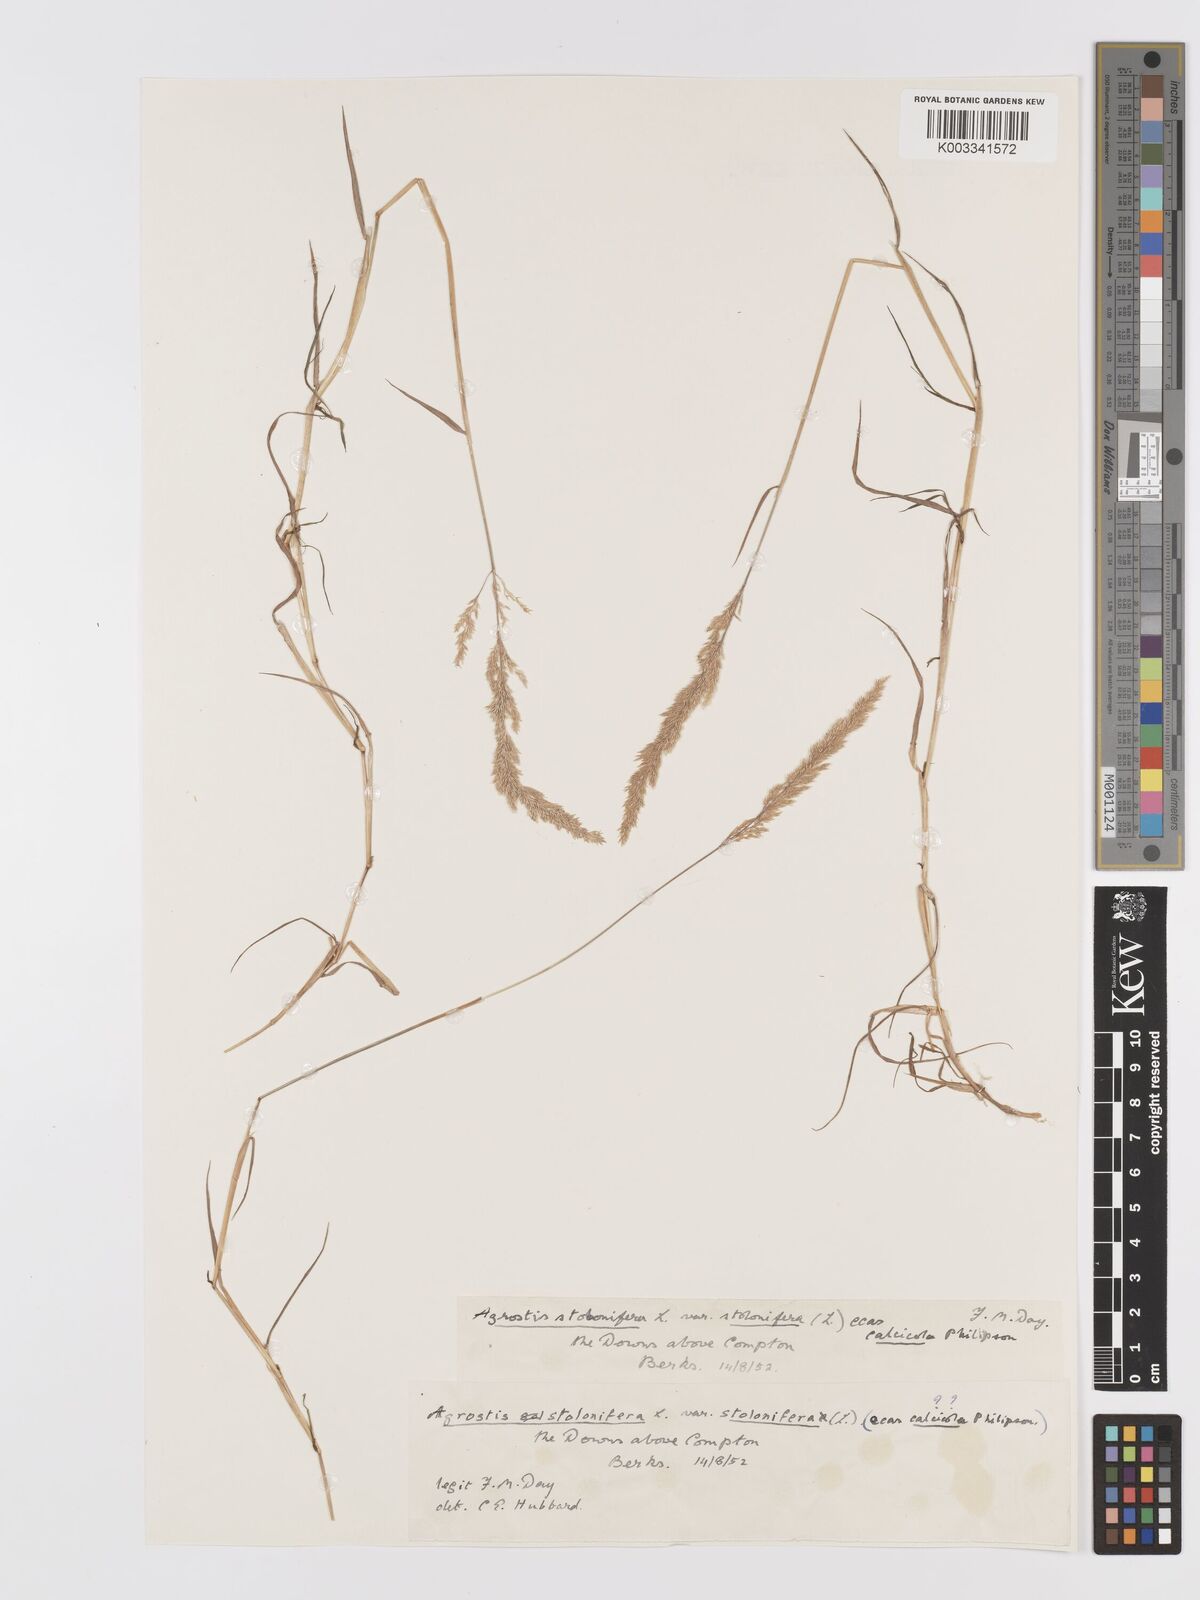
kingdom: Plantae
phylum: Tracheophyta
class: Liliopsida
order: Poales
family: Poaceae
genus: Agrostis
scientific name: Agrostis stolonifera
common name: Creeping bentgrass
